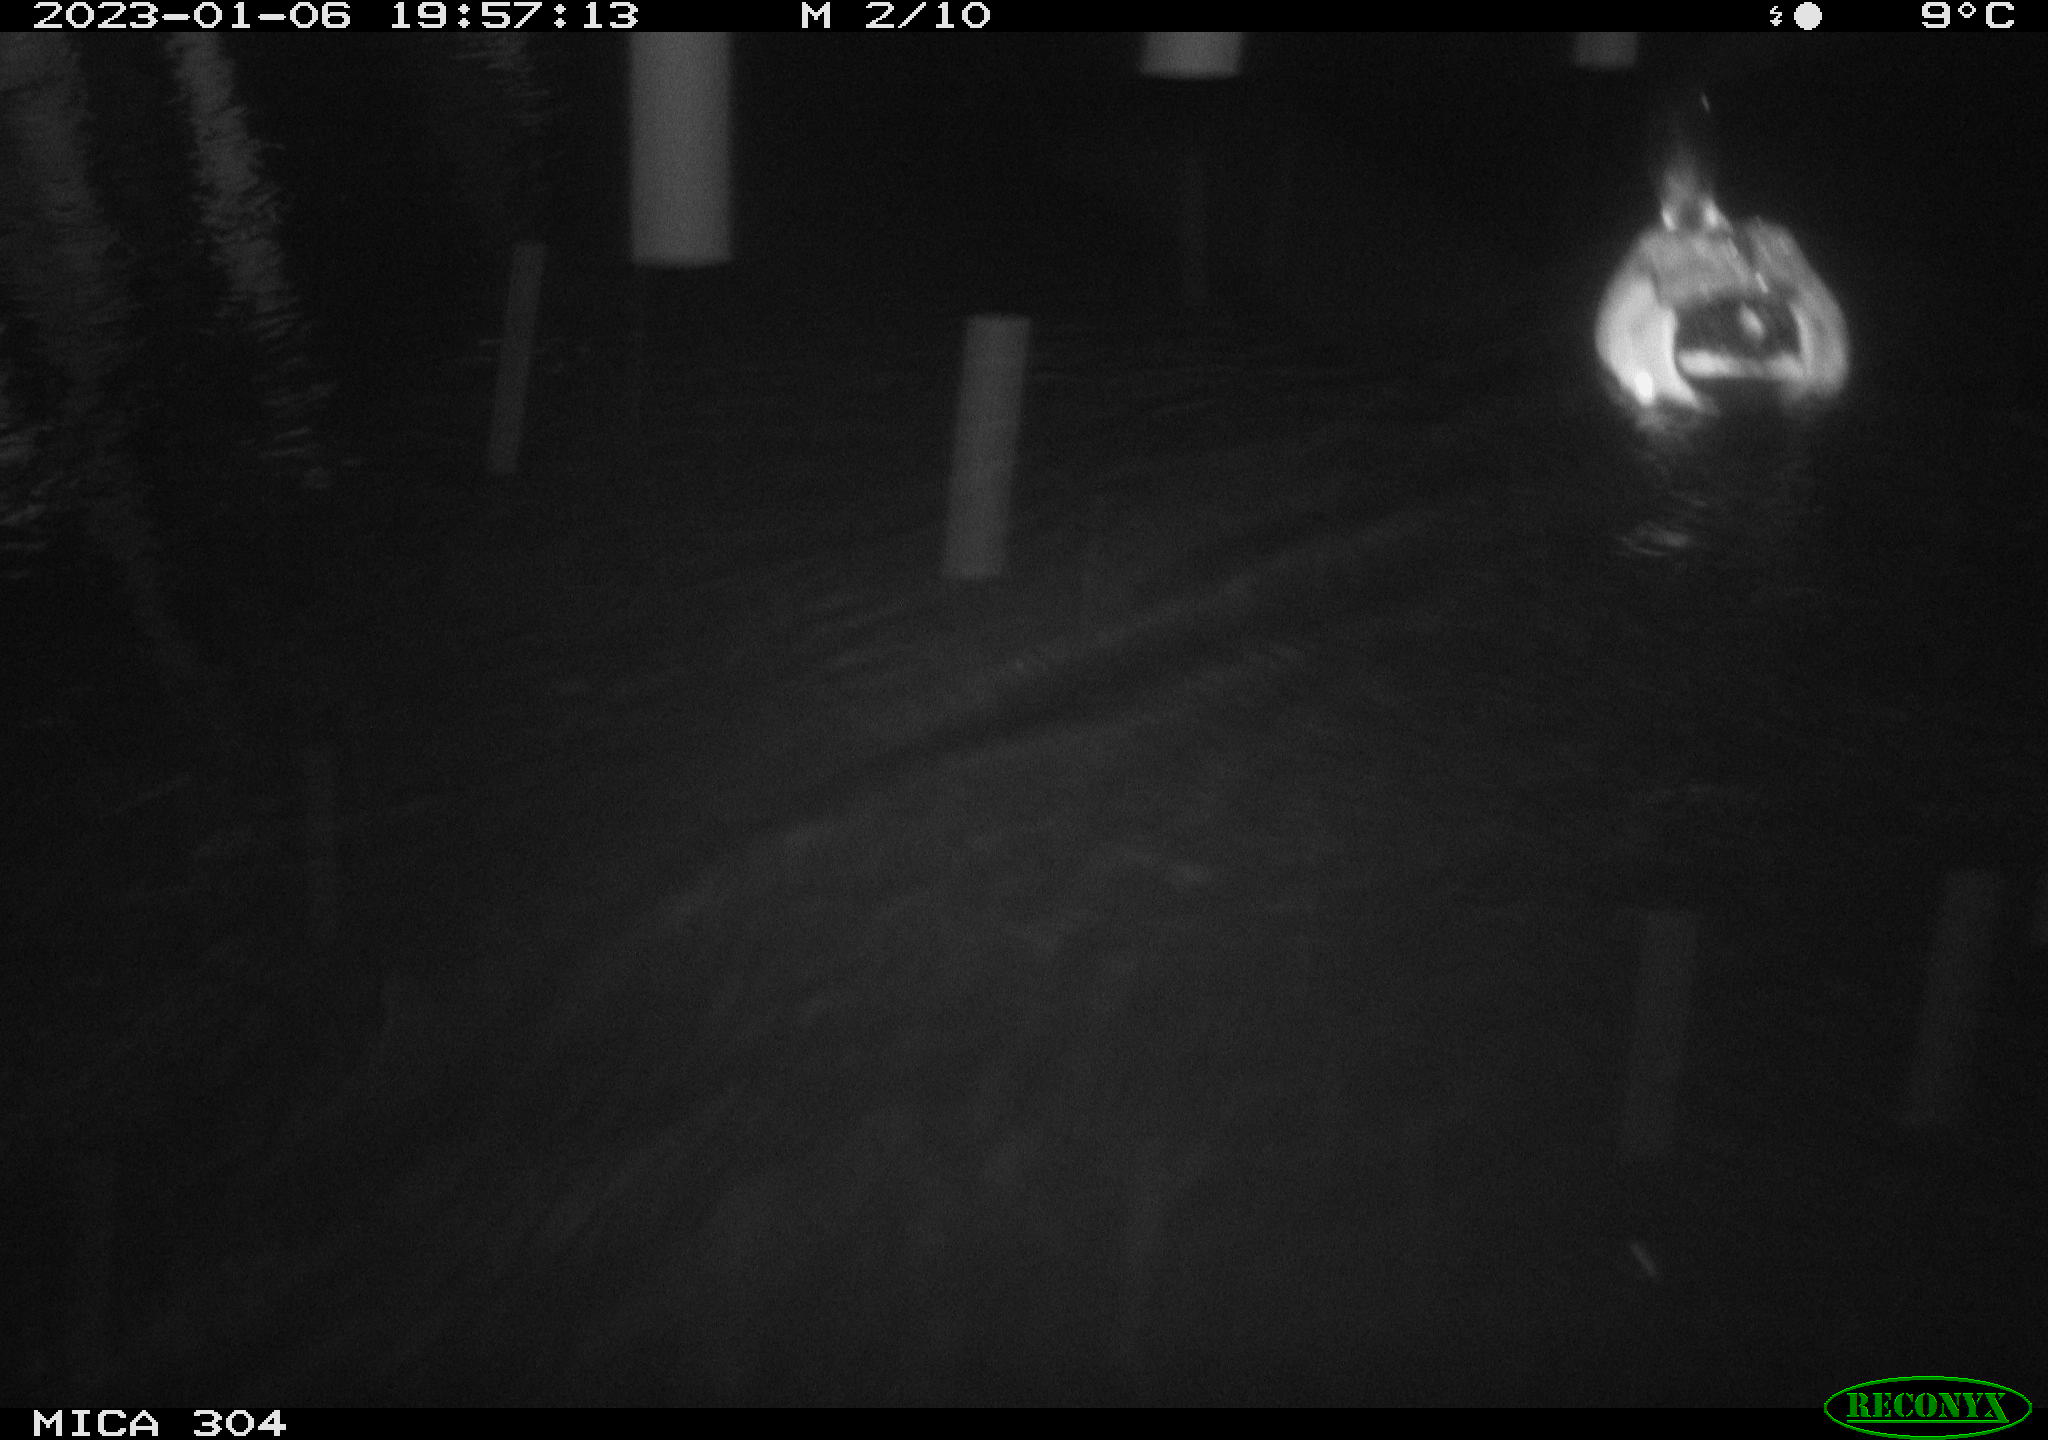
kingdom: Animalia
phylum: Chordata
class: Aves
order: Anseriformes
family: Anatidae
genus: Anas
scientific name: Anas
